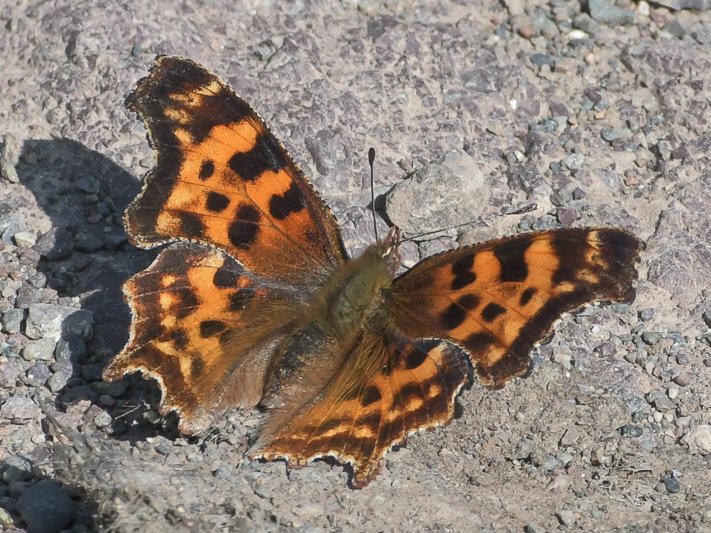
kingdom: Animalia
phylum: Arthropoda
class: Insecta
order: Lepidoptera
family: Nymphalidae
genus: Polygonia
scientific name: Polygonia satyrus
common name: Satyr Comma
